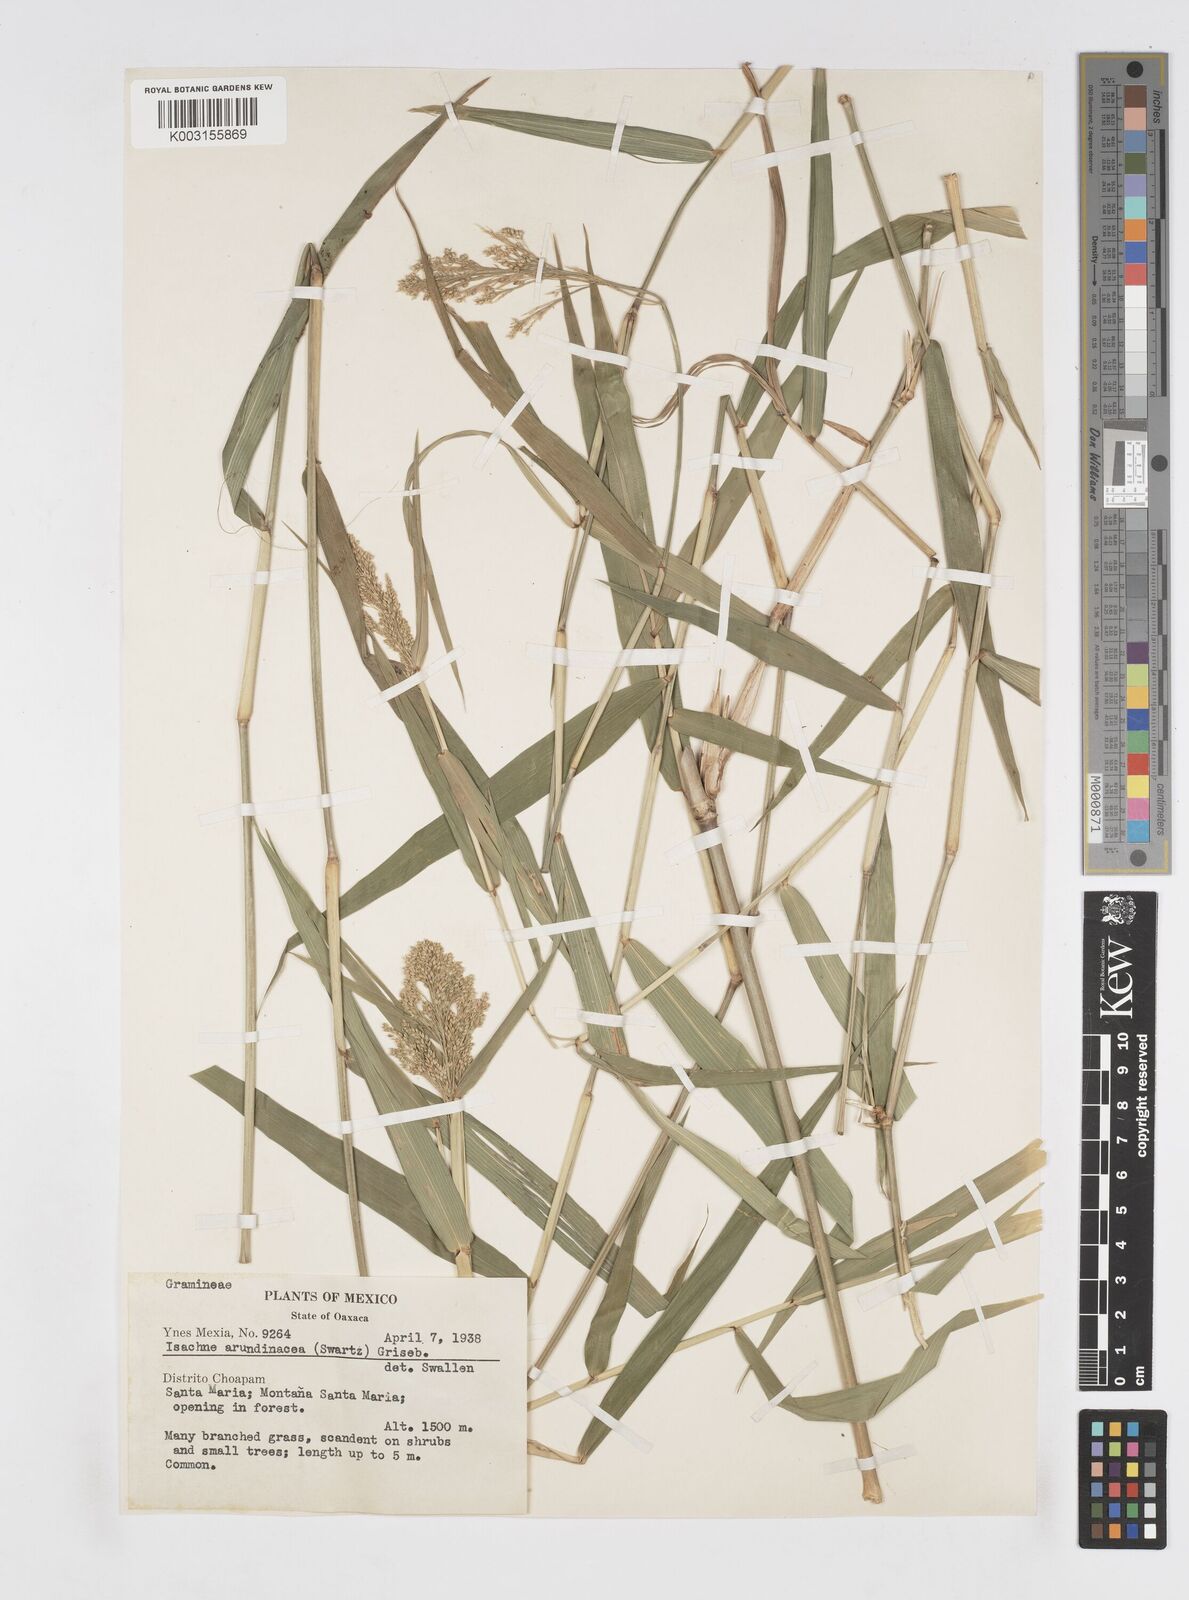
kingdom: Plantae
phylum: Tracheophyta
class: Liliopsida
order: Poales
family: Poaceae
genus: Isachne
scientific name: Isachne arundinacea
